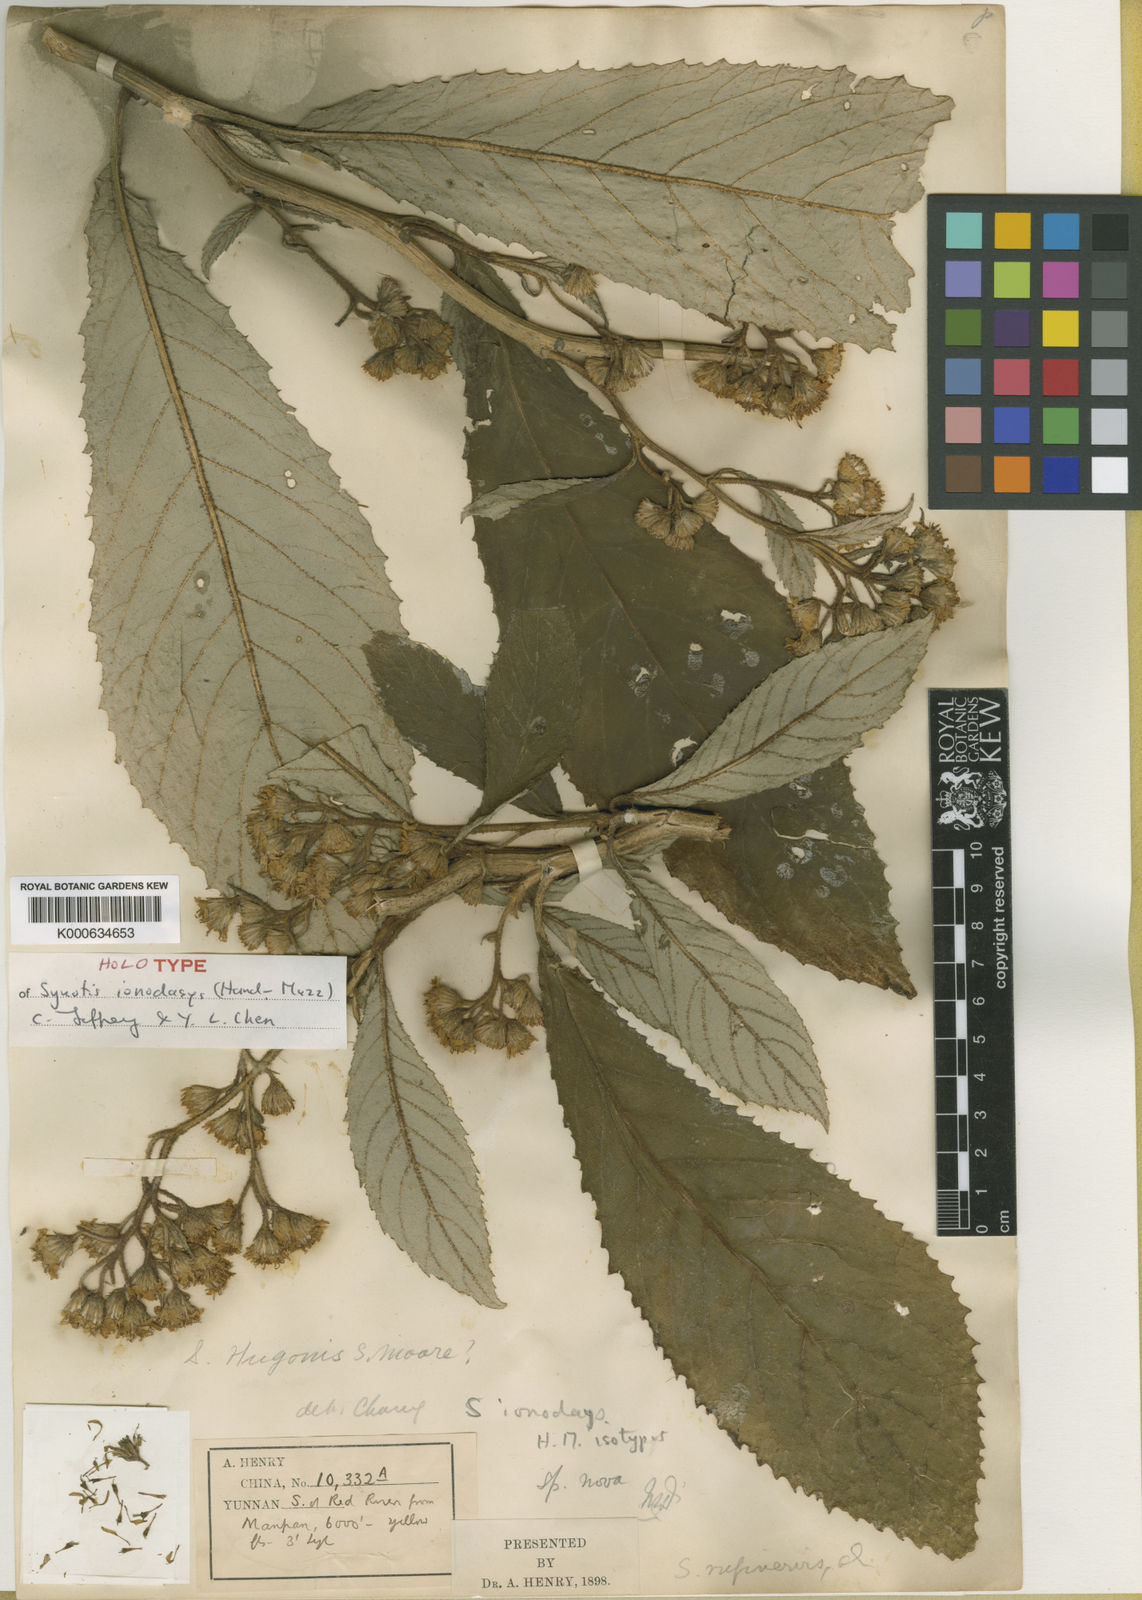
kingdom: Plantae
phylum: Tracheophyta
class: Magnoliopsida
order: Asterales
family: Asteraceae
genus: Synotis
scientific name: Synotis cappa
